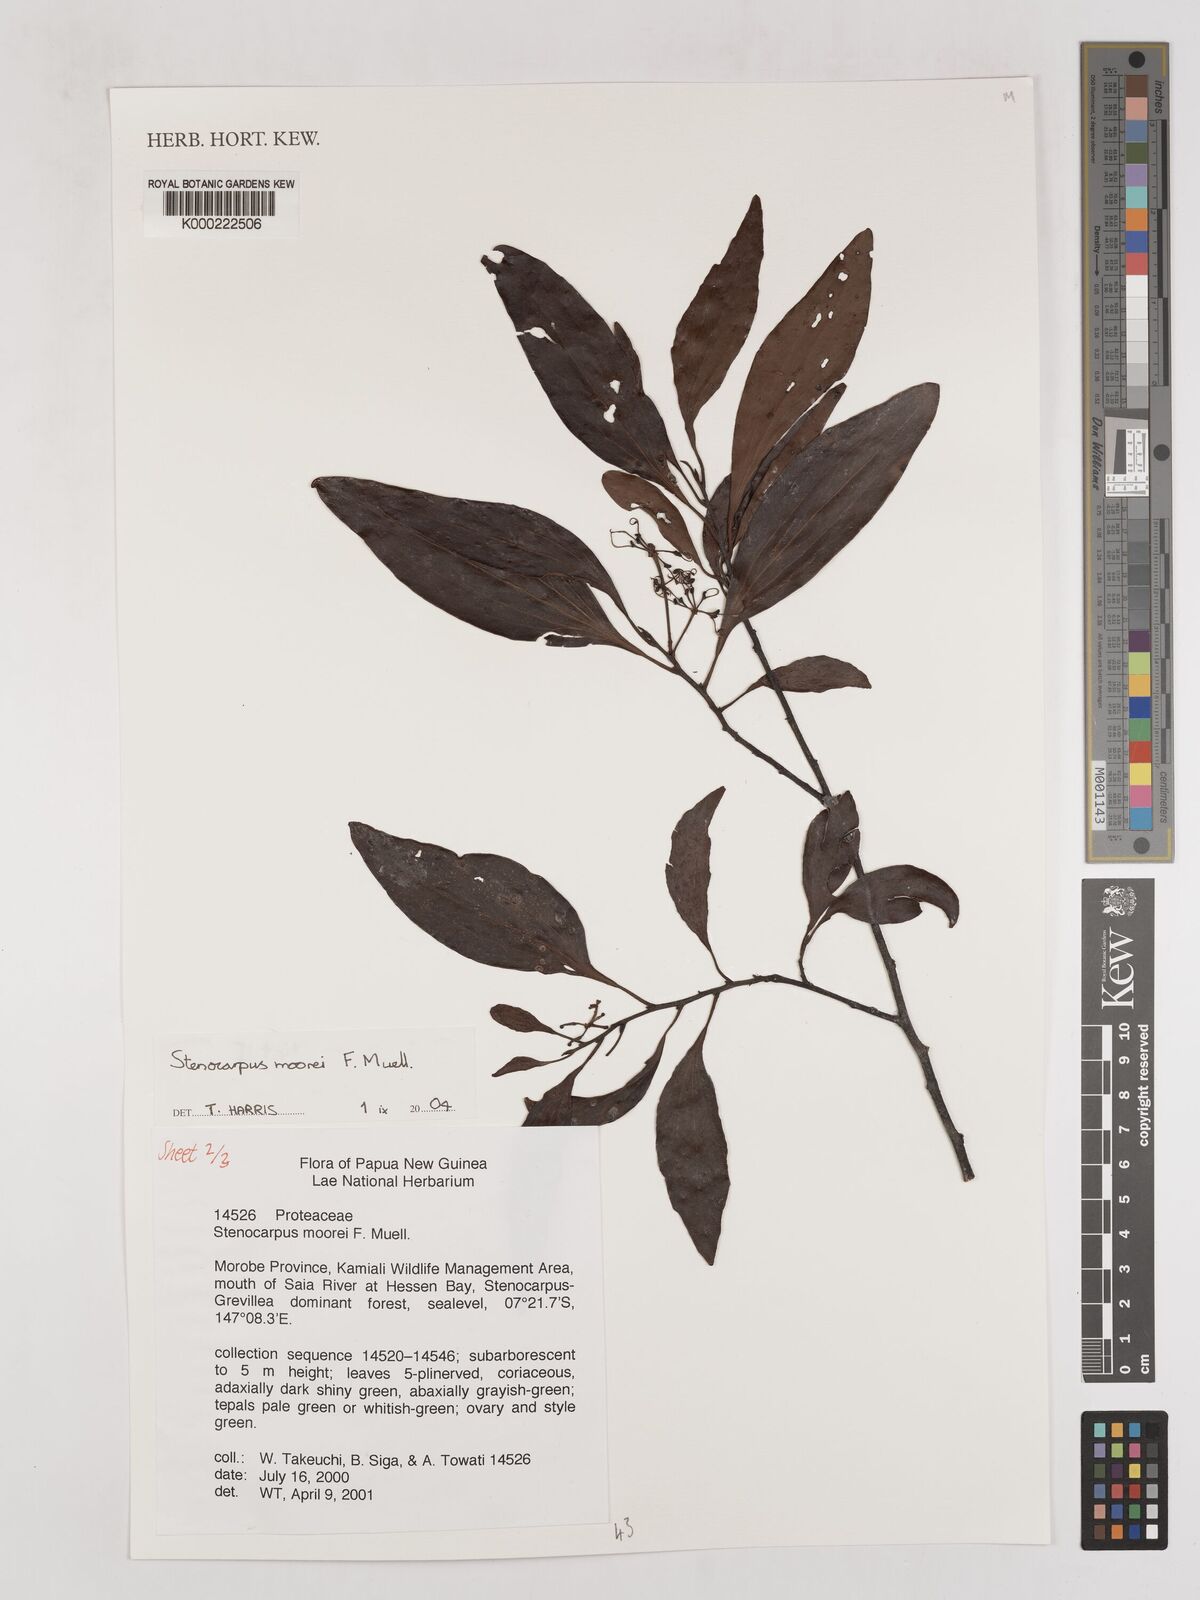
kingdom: Plantae
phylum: Tracheophyta
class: Magnoliopsida
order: Proteales
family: Proteaceae
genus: Stenocarpus
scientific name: Stenocarpus moorei
